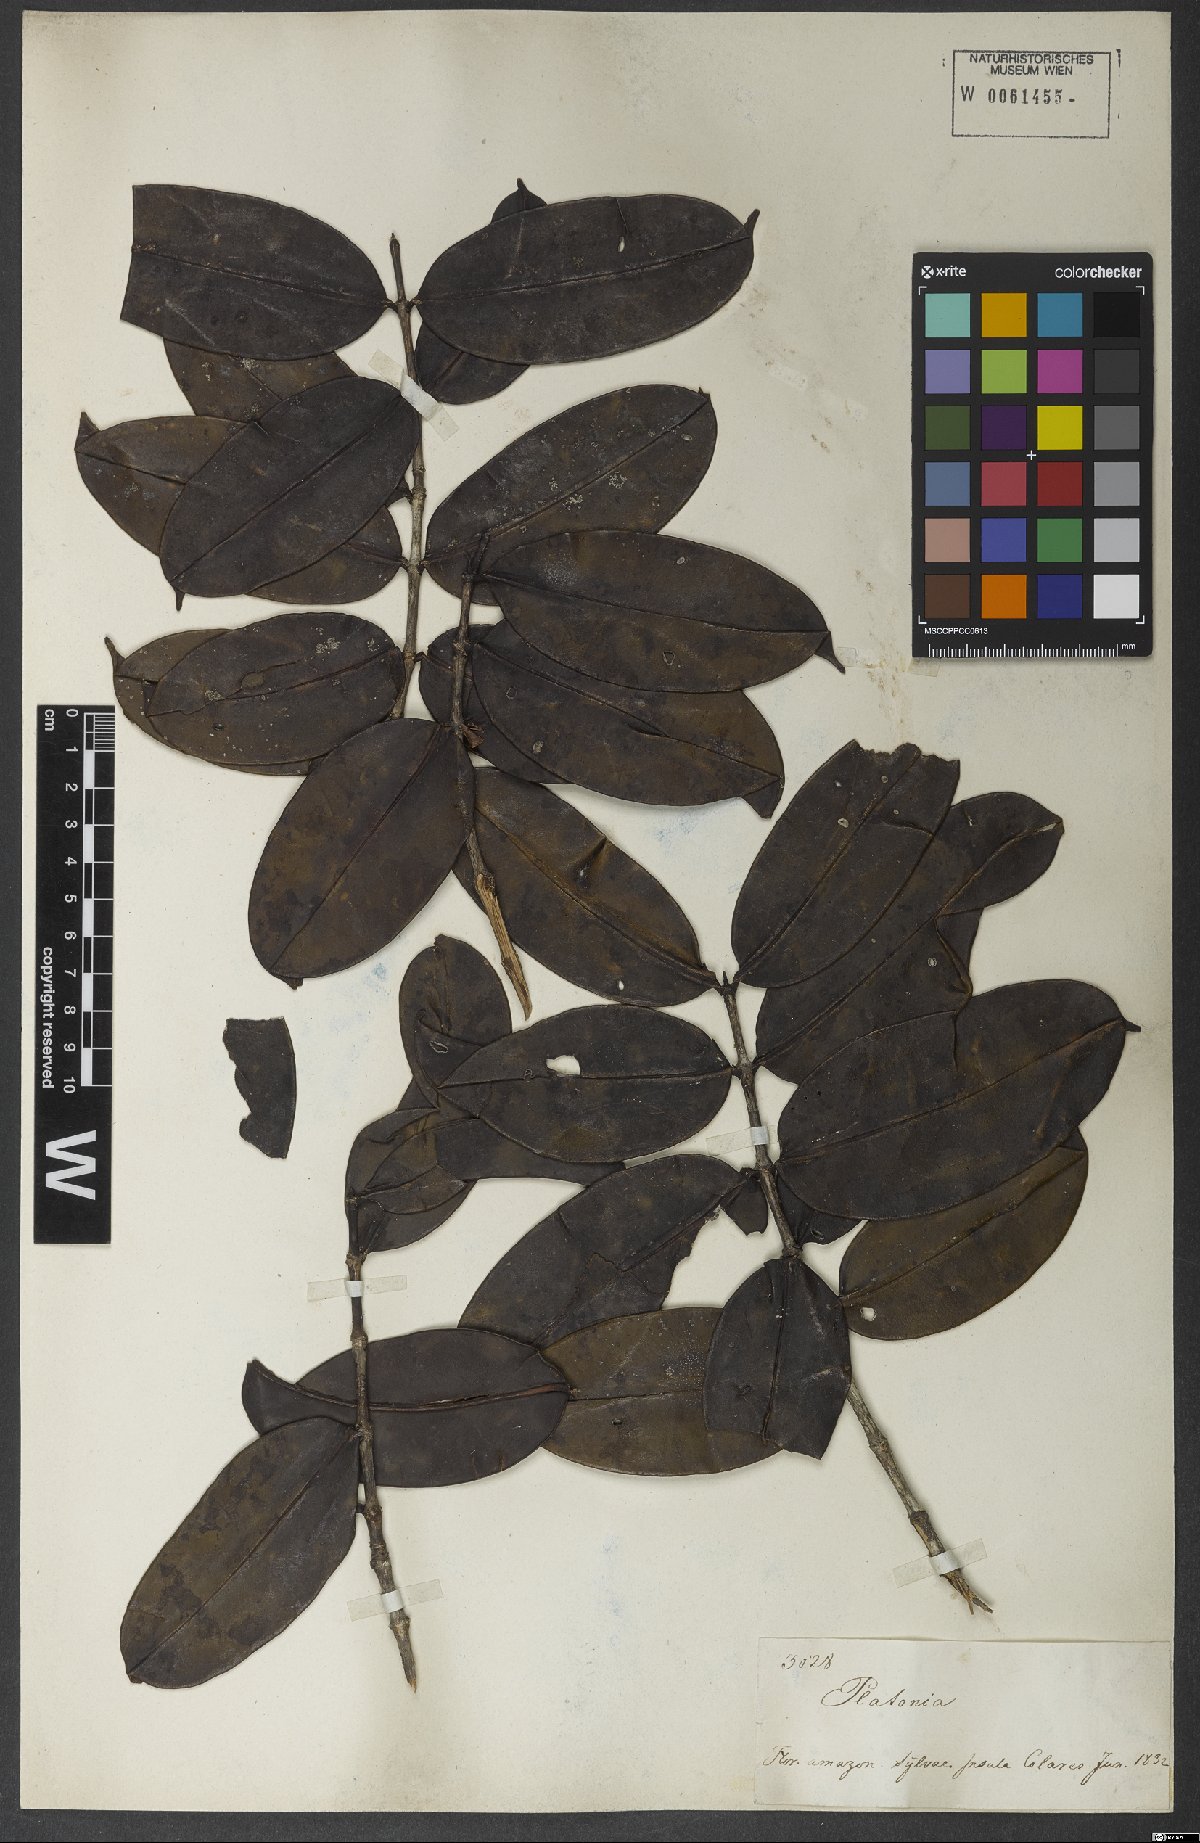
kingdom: Plantae
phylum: Tracheophyta
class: Magnoliopsida
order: Malpighiales
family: Clusiaceae
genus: Platonia
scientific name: Platonia
